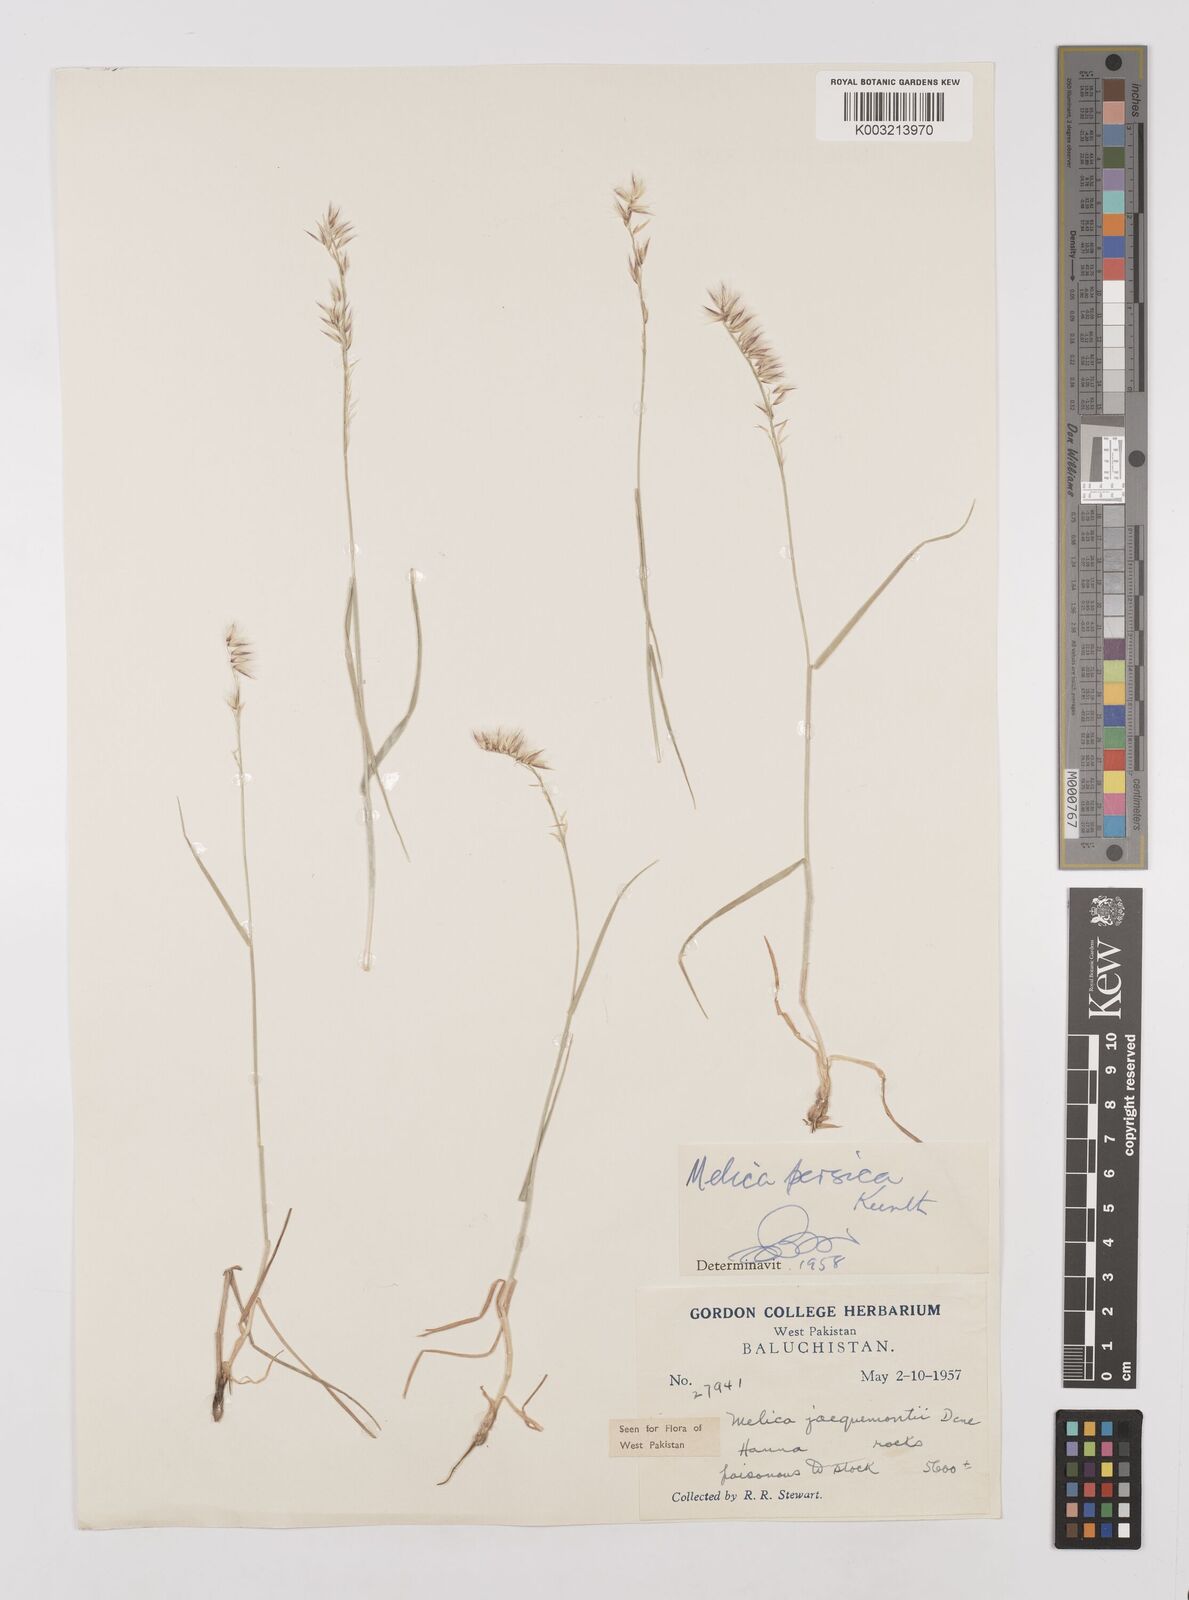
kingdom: Plantae
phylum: Tracheophyta
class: Liliopsida
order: Poales
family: Poaceae
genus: Melica
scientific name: Melica persica
